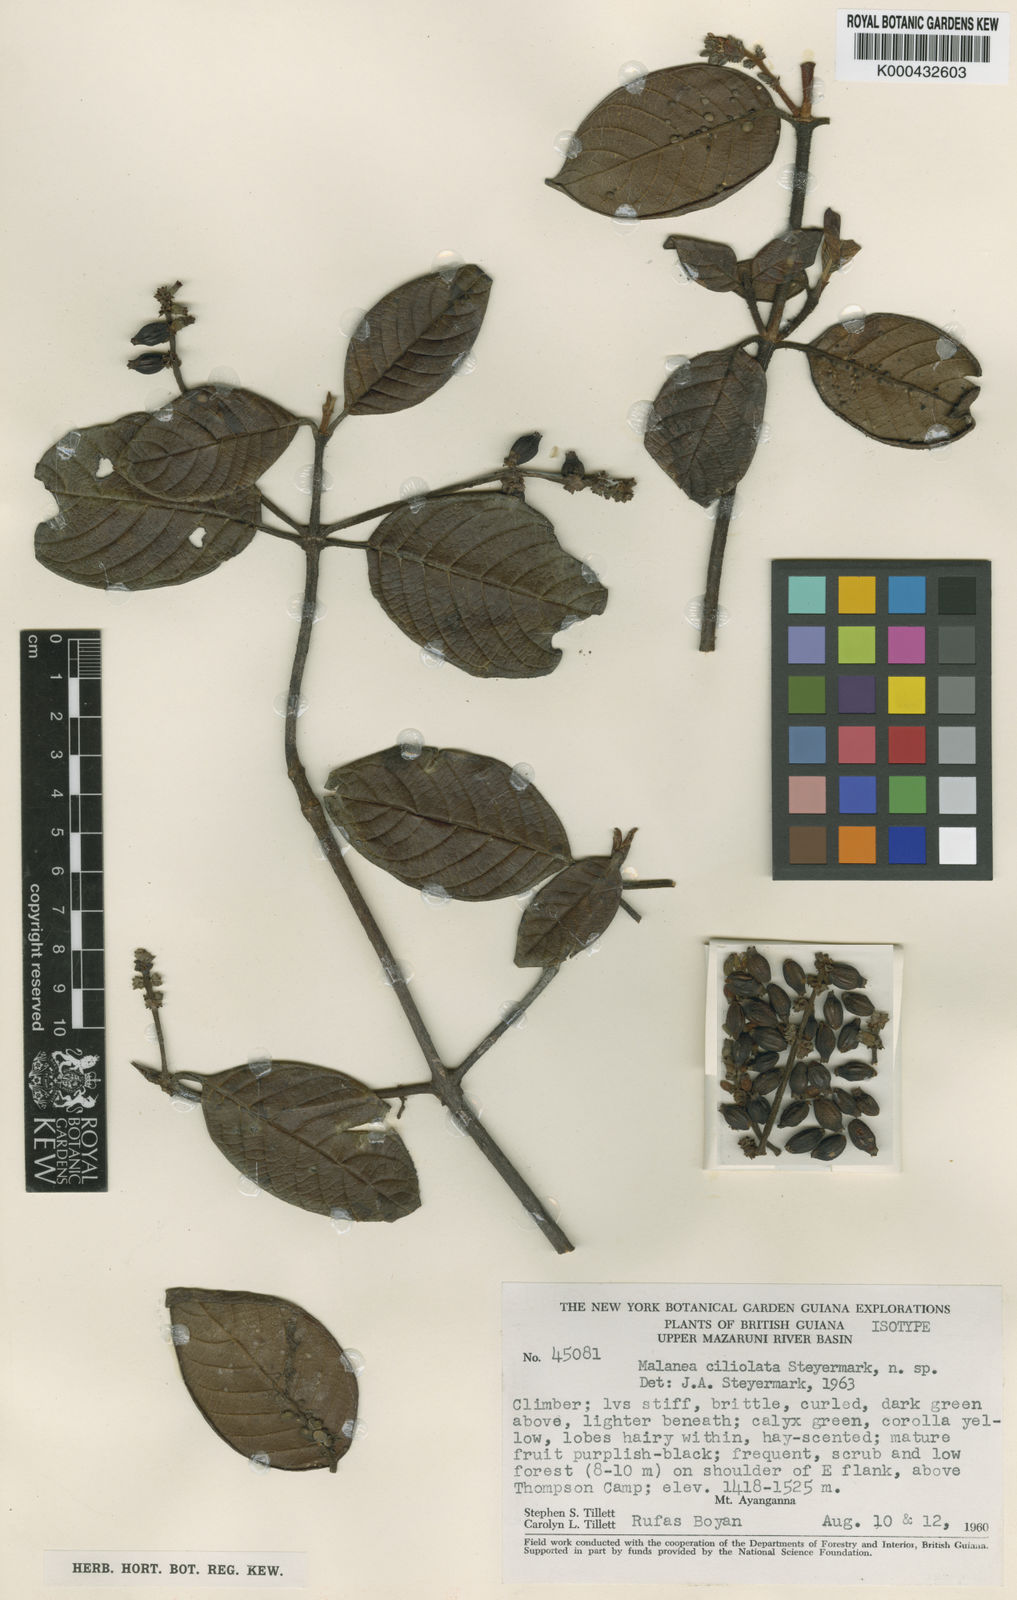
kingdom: Plantae
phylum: Tracheophyta
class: Magnoliopsida
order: Gentianales
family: Rubiaceae
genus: Malanea
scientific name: Malanea ciliolata
